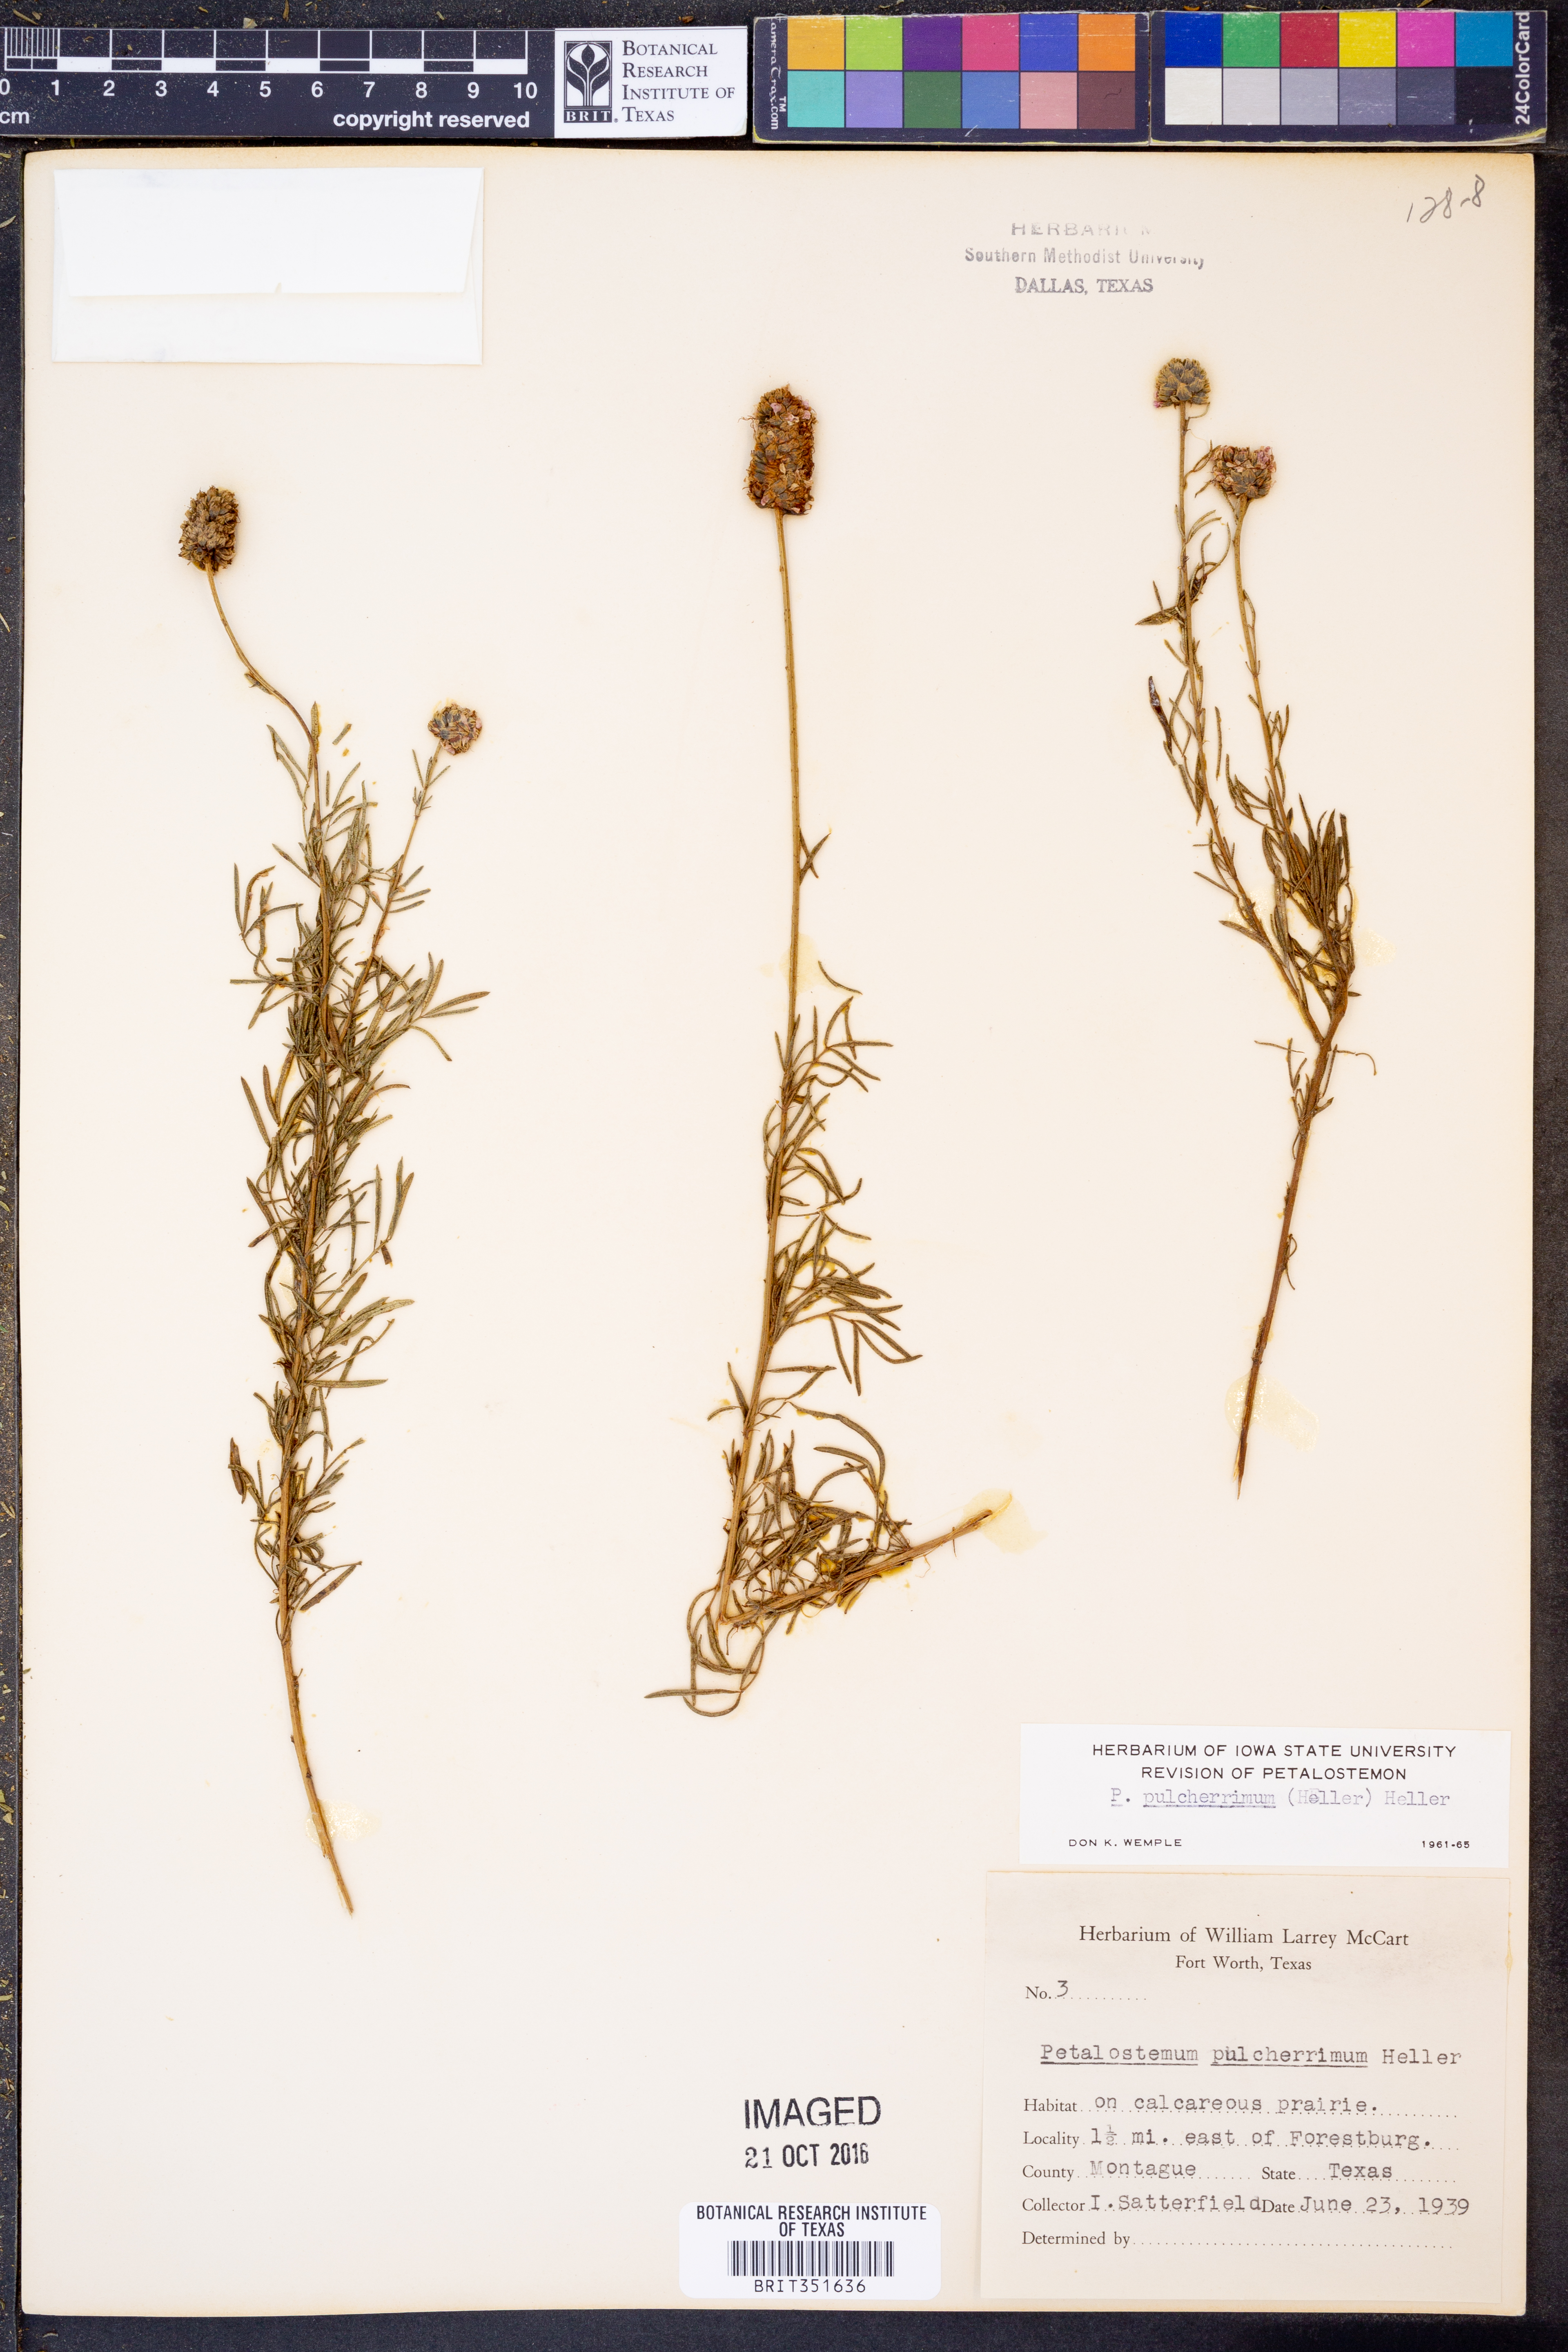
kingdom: Plantae
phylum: Tracheophyta
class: Magnoliopsida
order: Fabales
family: Fabaceae
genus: Dalea
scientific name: Dalea compacta
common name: Compact prairie-clover
